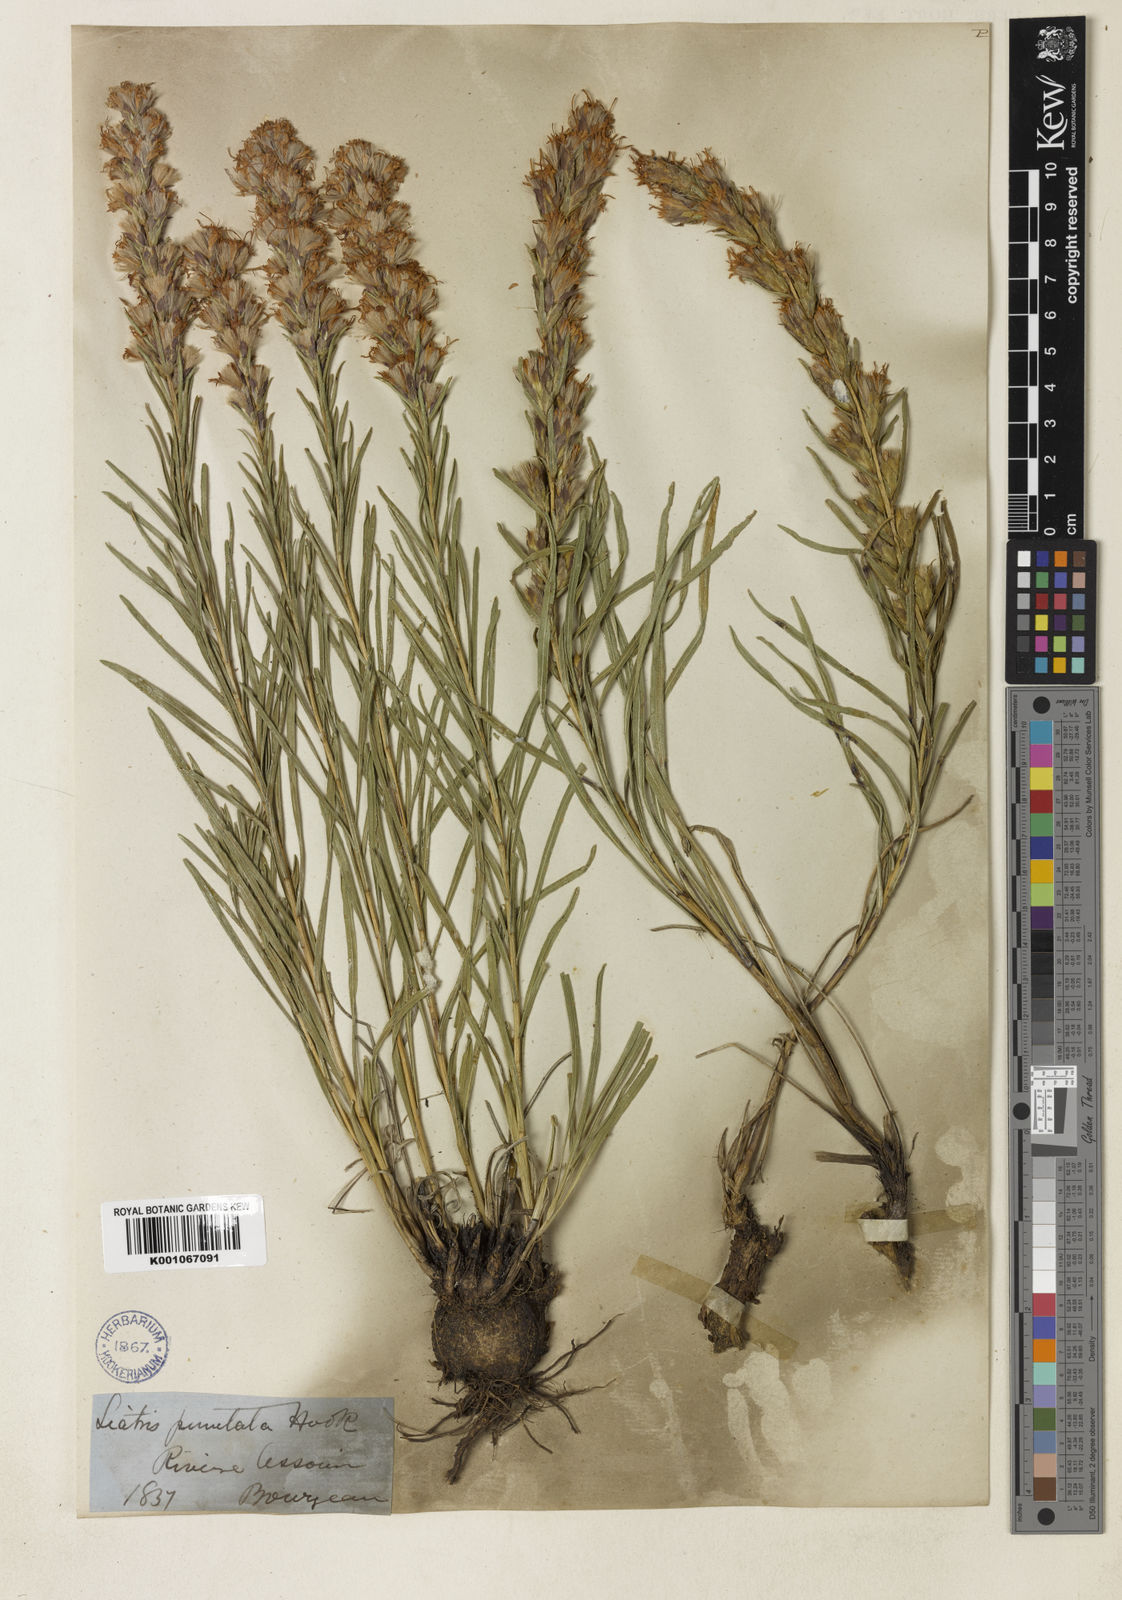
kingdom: Plantae
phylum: Tracheophyta
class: Magnoliopsida
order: Asterales
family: Asteraceae
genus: Liatris
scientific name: Liatris punctata
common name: Dotted gayfeather
